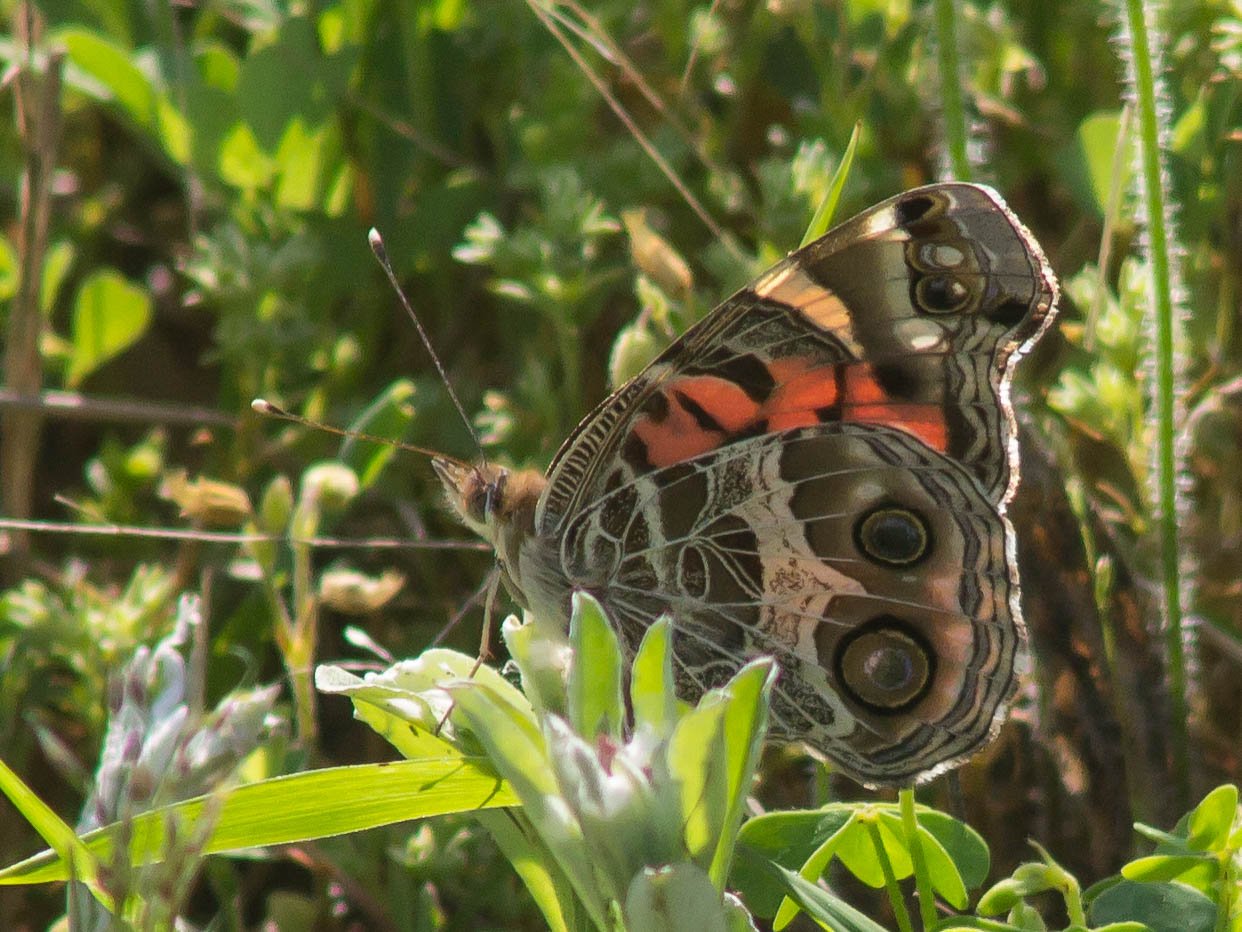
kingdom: Animalia
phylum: Arthropoda
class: Insecta
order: Lepidoptera
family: Nymphalidae
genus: Vanessa
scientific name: Vanessa virginiensis
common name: American Lady
